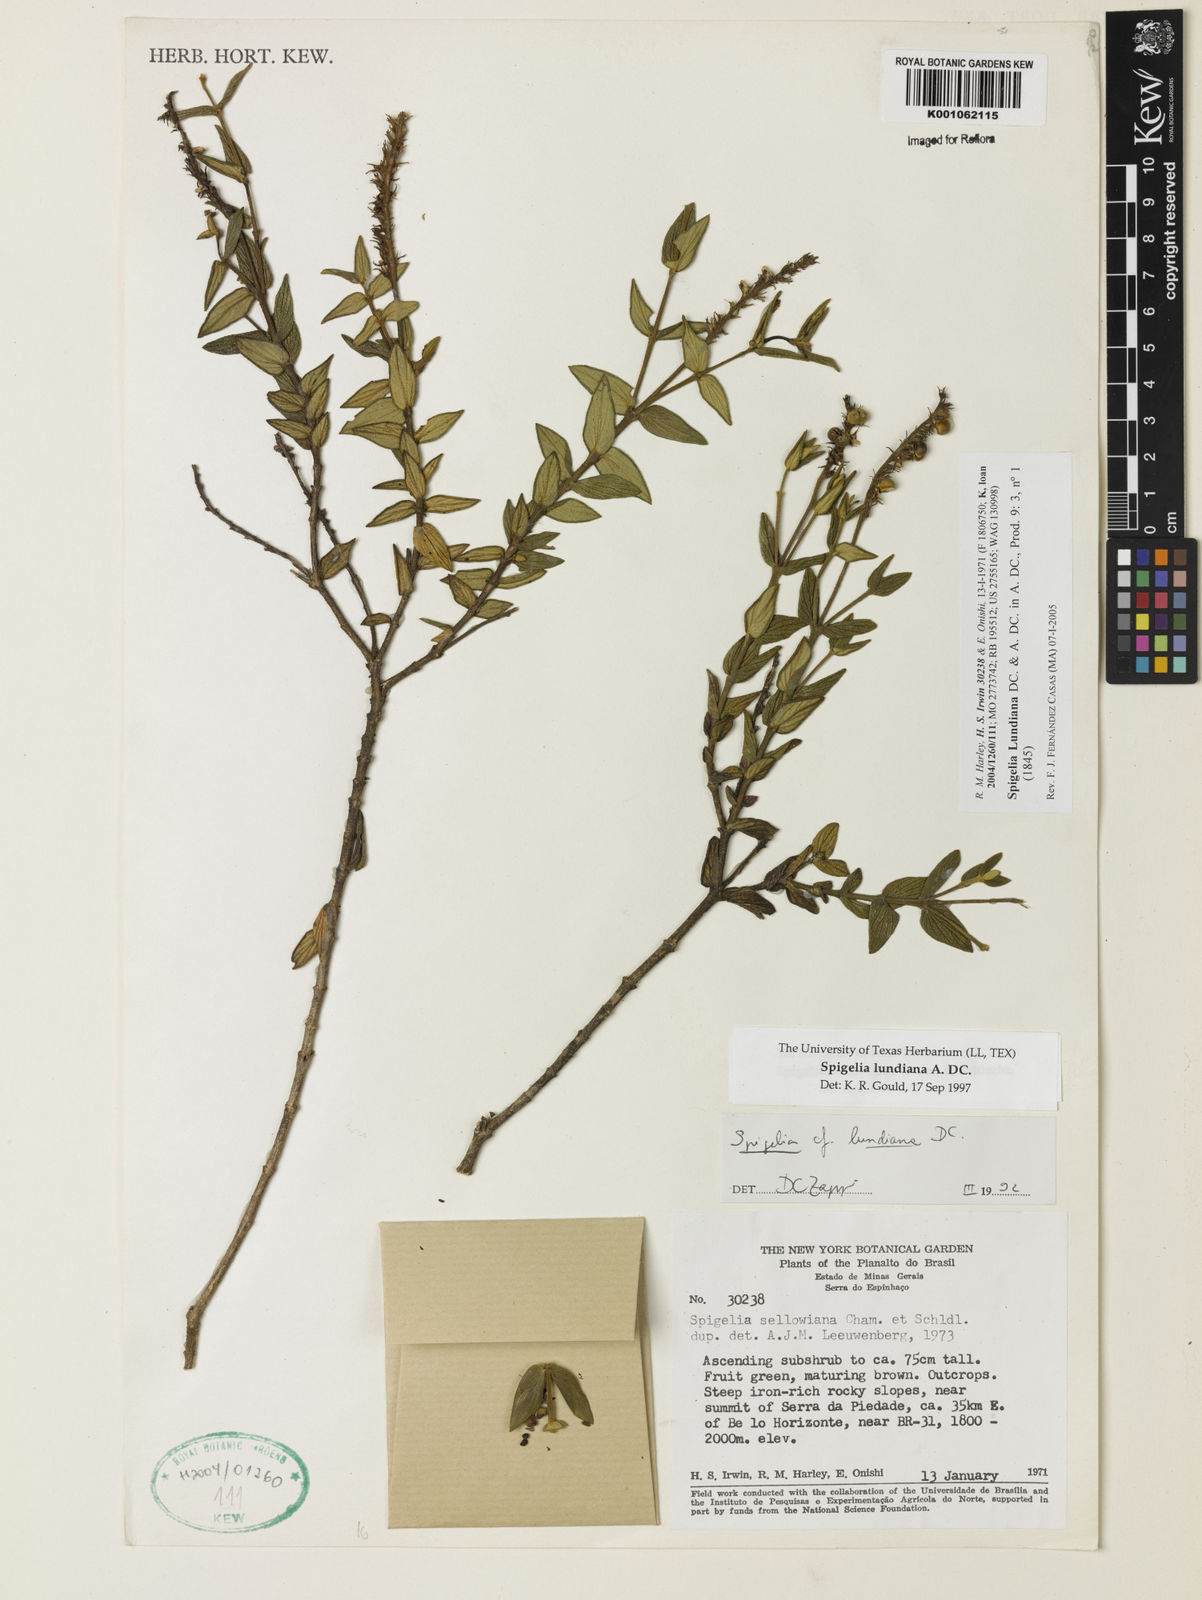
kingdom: Plantae
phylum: Tracheophyta
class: Magnoliopsida
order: Gentianales
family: Loganiaceae
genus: Spigelia
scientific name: Spigelia
